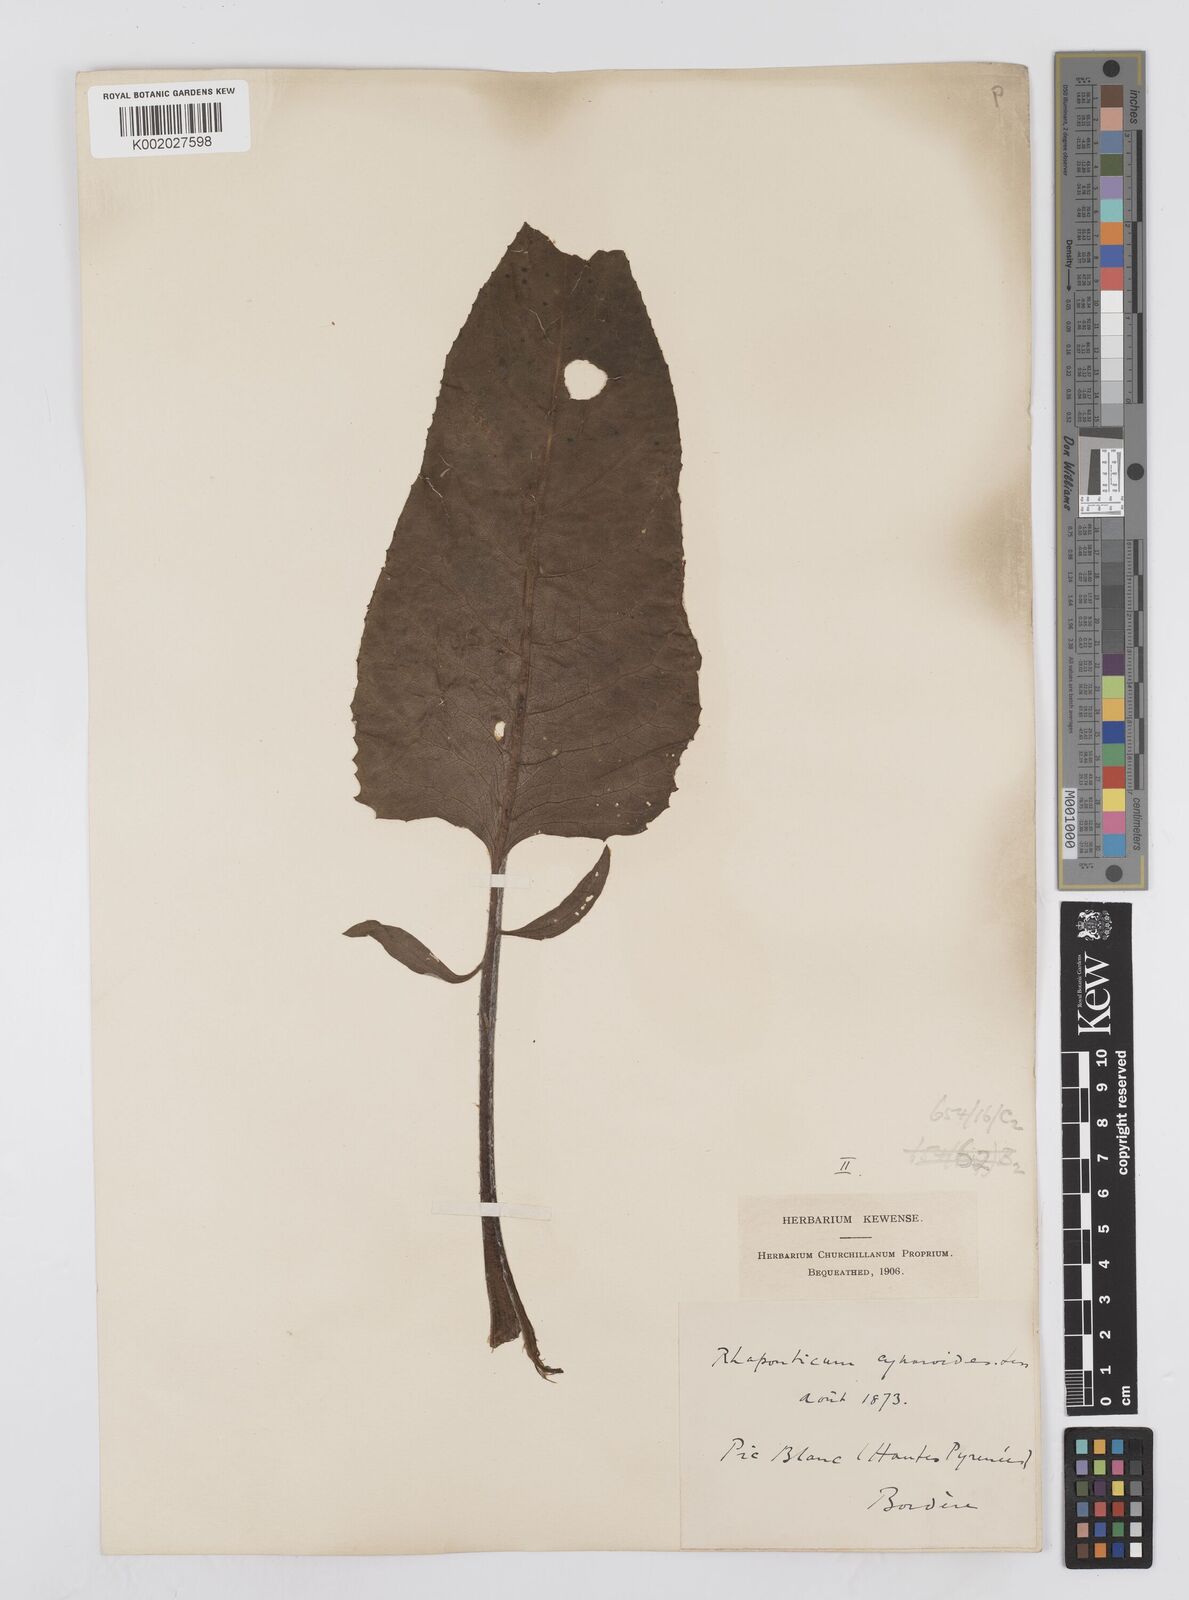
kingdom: Plantae
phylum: Tracheophyta
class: Magnoliopsida
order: Asterales
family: Asteraceae
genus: Leuzea
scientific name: Leuzea centauroides
